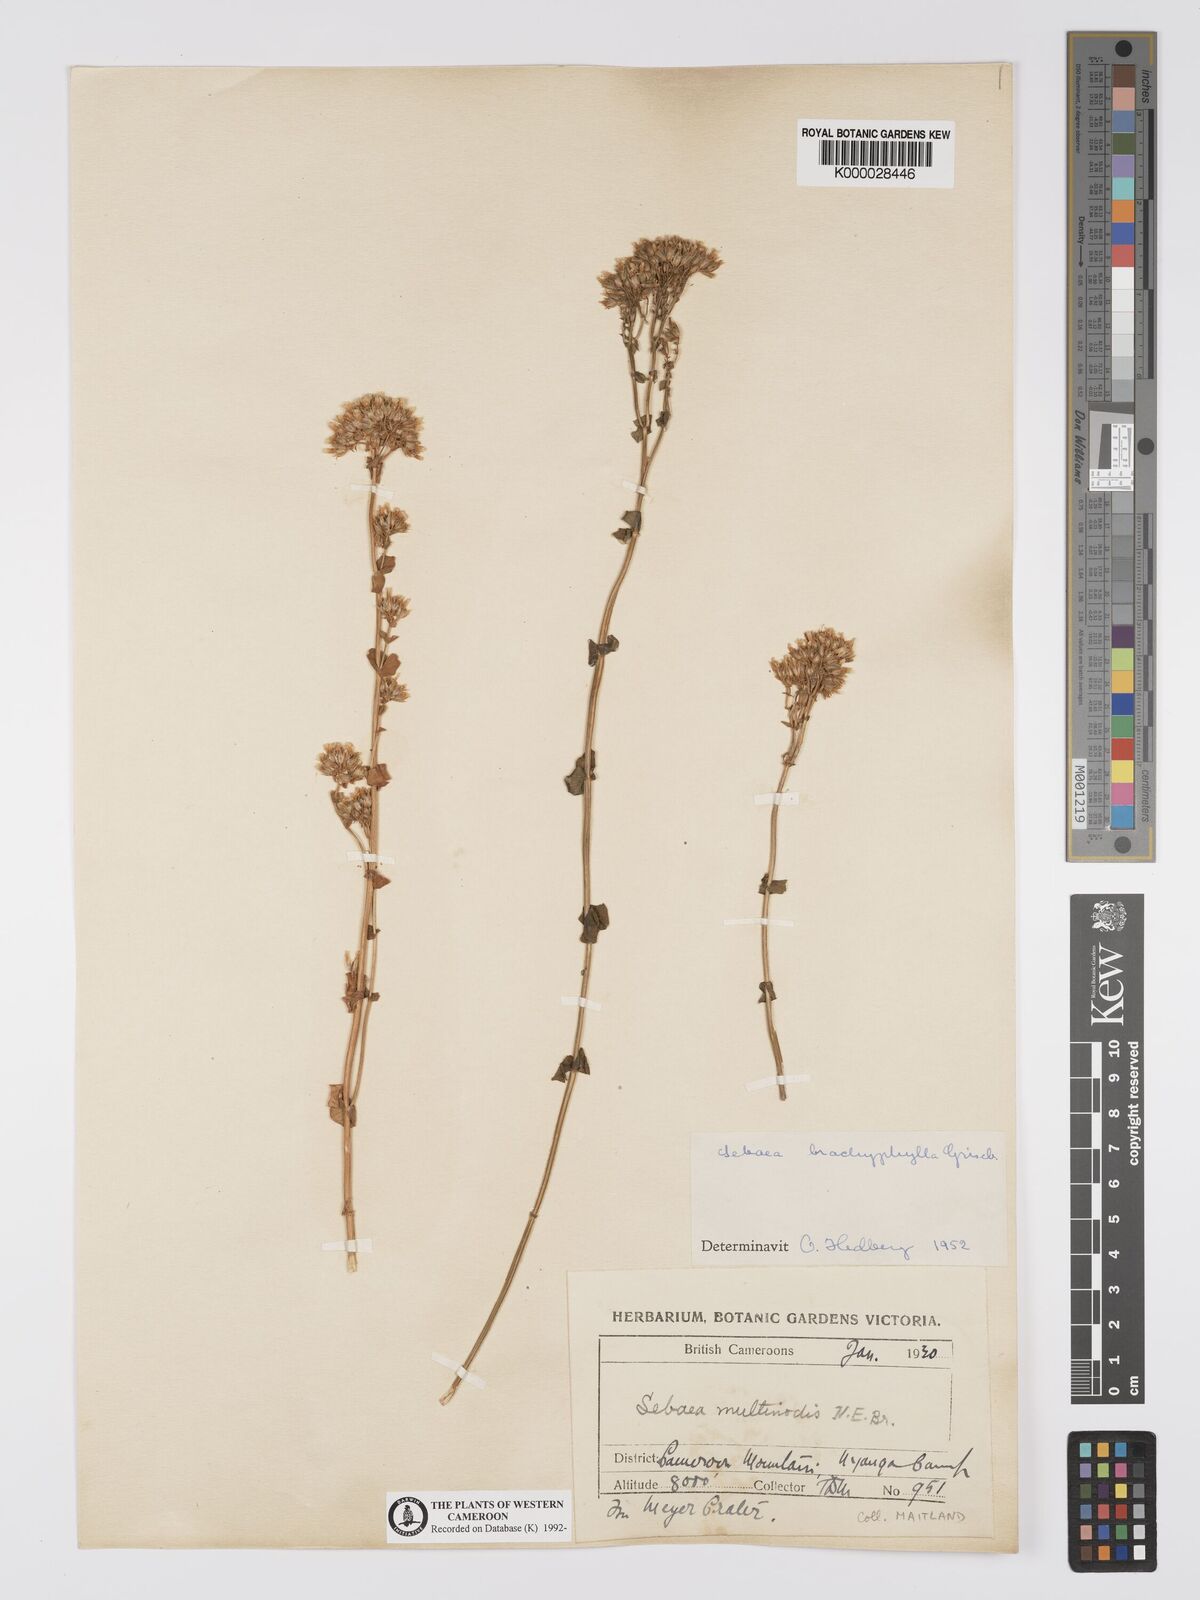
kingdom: Plantae
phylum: Tracheophyta
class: Magnoliopsida
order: Gentianales
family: Gentianaceae
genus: Sebaea
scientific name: Sebaea brachyphylla
